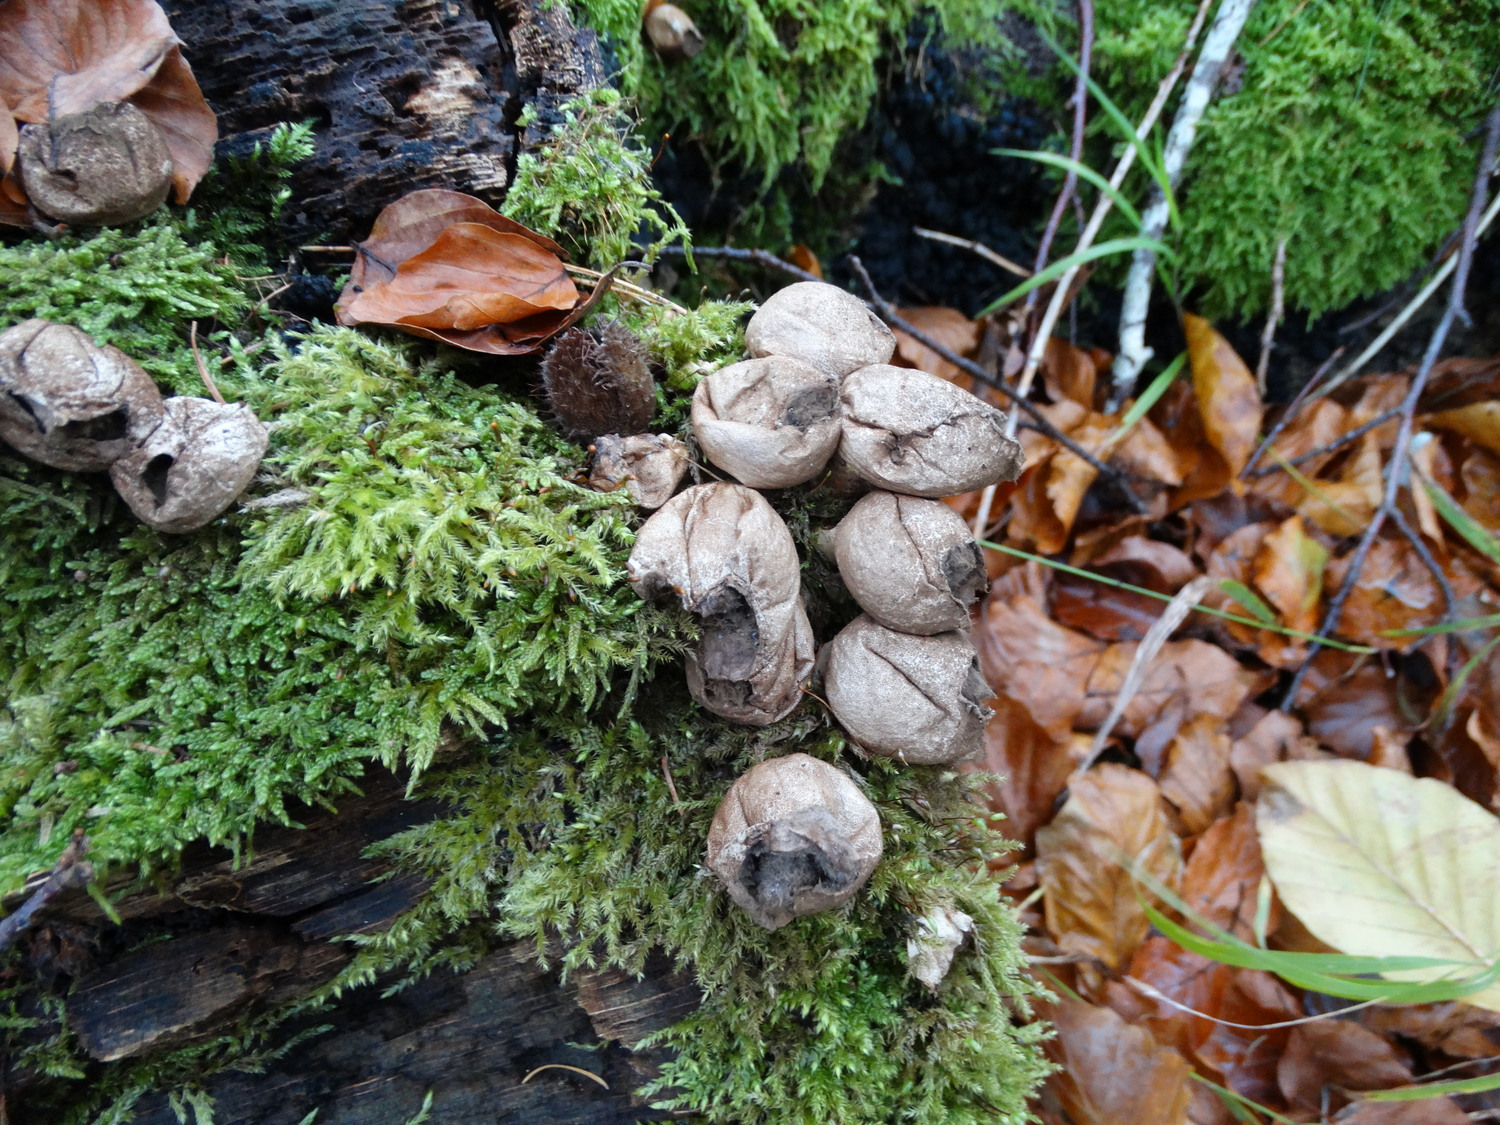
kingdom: Fungi
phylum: Basidiomycota
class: Agaricomycetes
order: Agaricales
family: Lycoperdaceae
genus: Apioperdon
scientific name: Apioperdon pyriforme
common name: pære-støvbold
